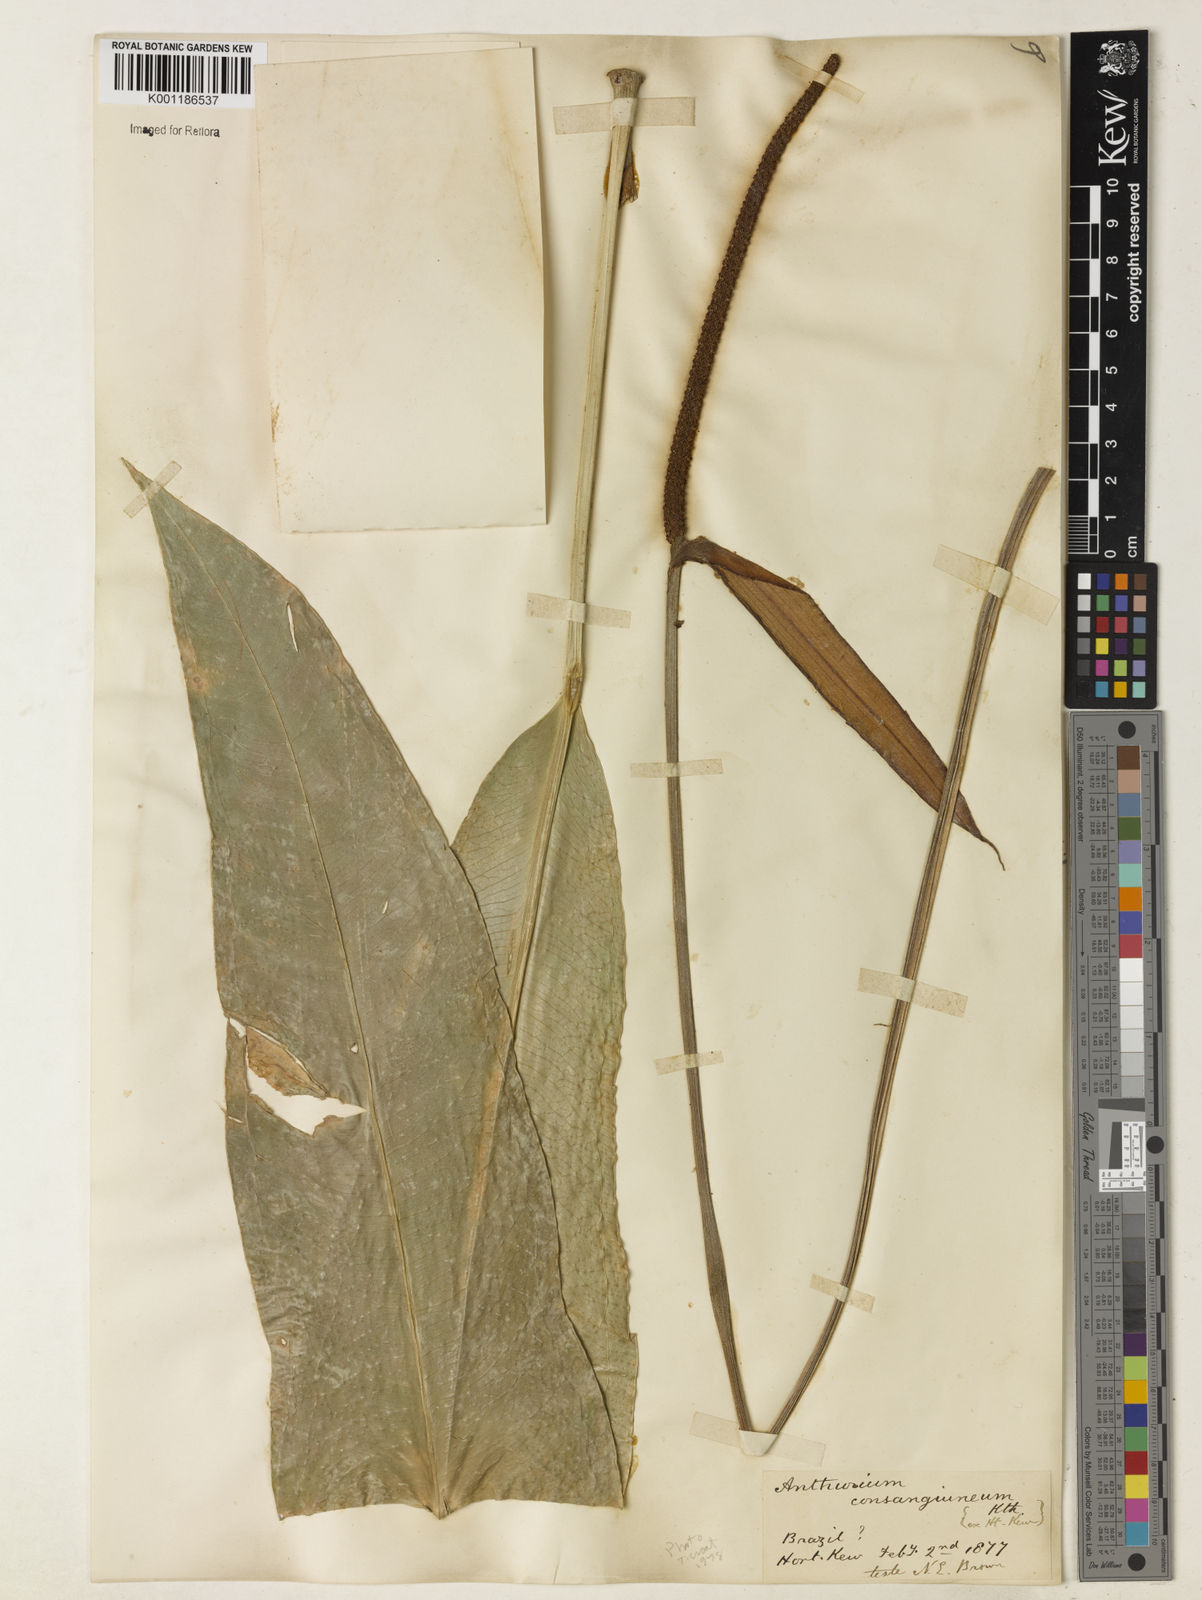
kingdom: Plantae
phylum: Tracheophyta
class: Liliopsida
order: Alismatales
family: Araceae
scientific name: Araceae
